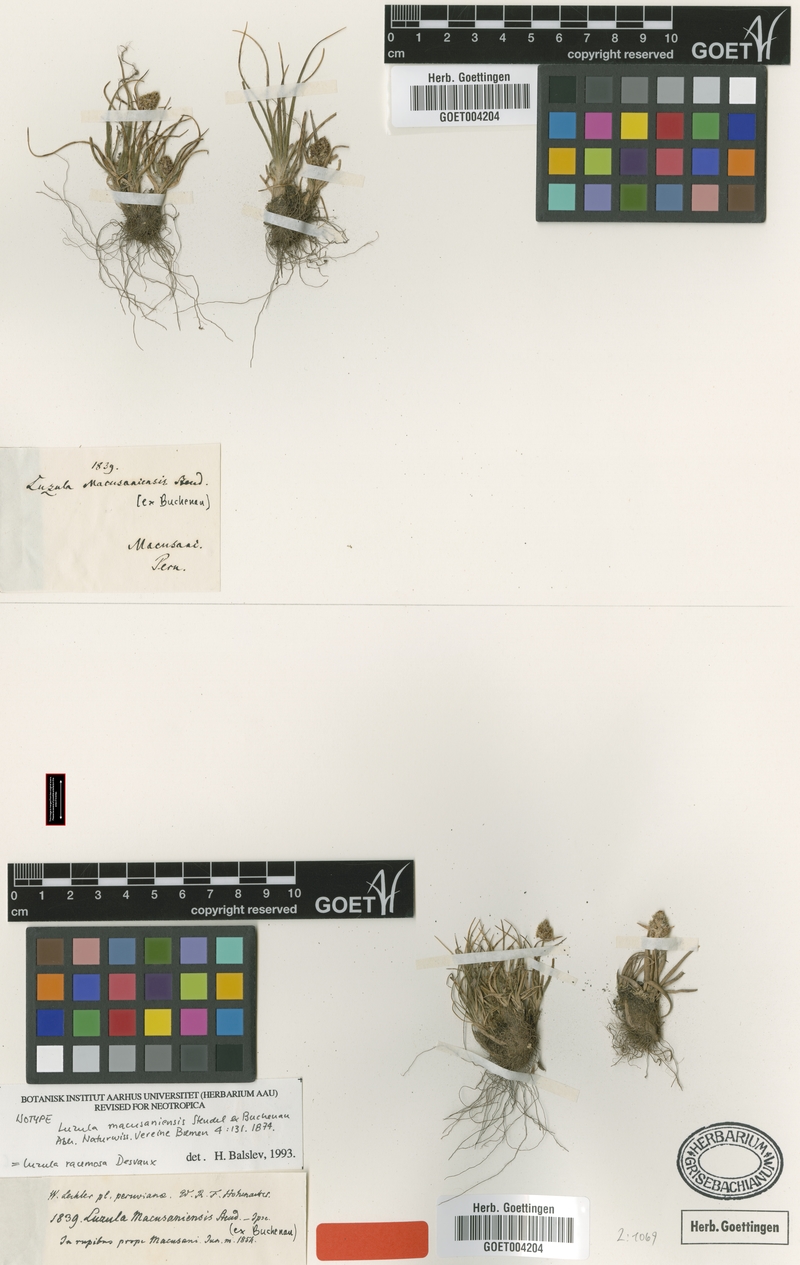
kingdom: Plantae
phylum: Tracheophyta
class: Liliopsida
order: Poales
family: Juncaceae
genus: Luzula
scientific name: Luzula racemosa
